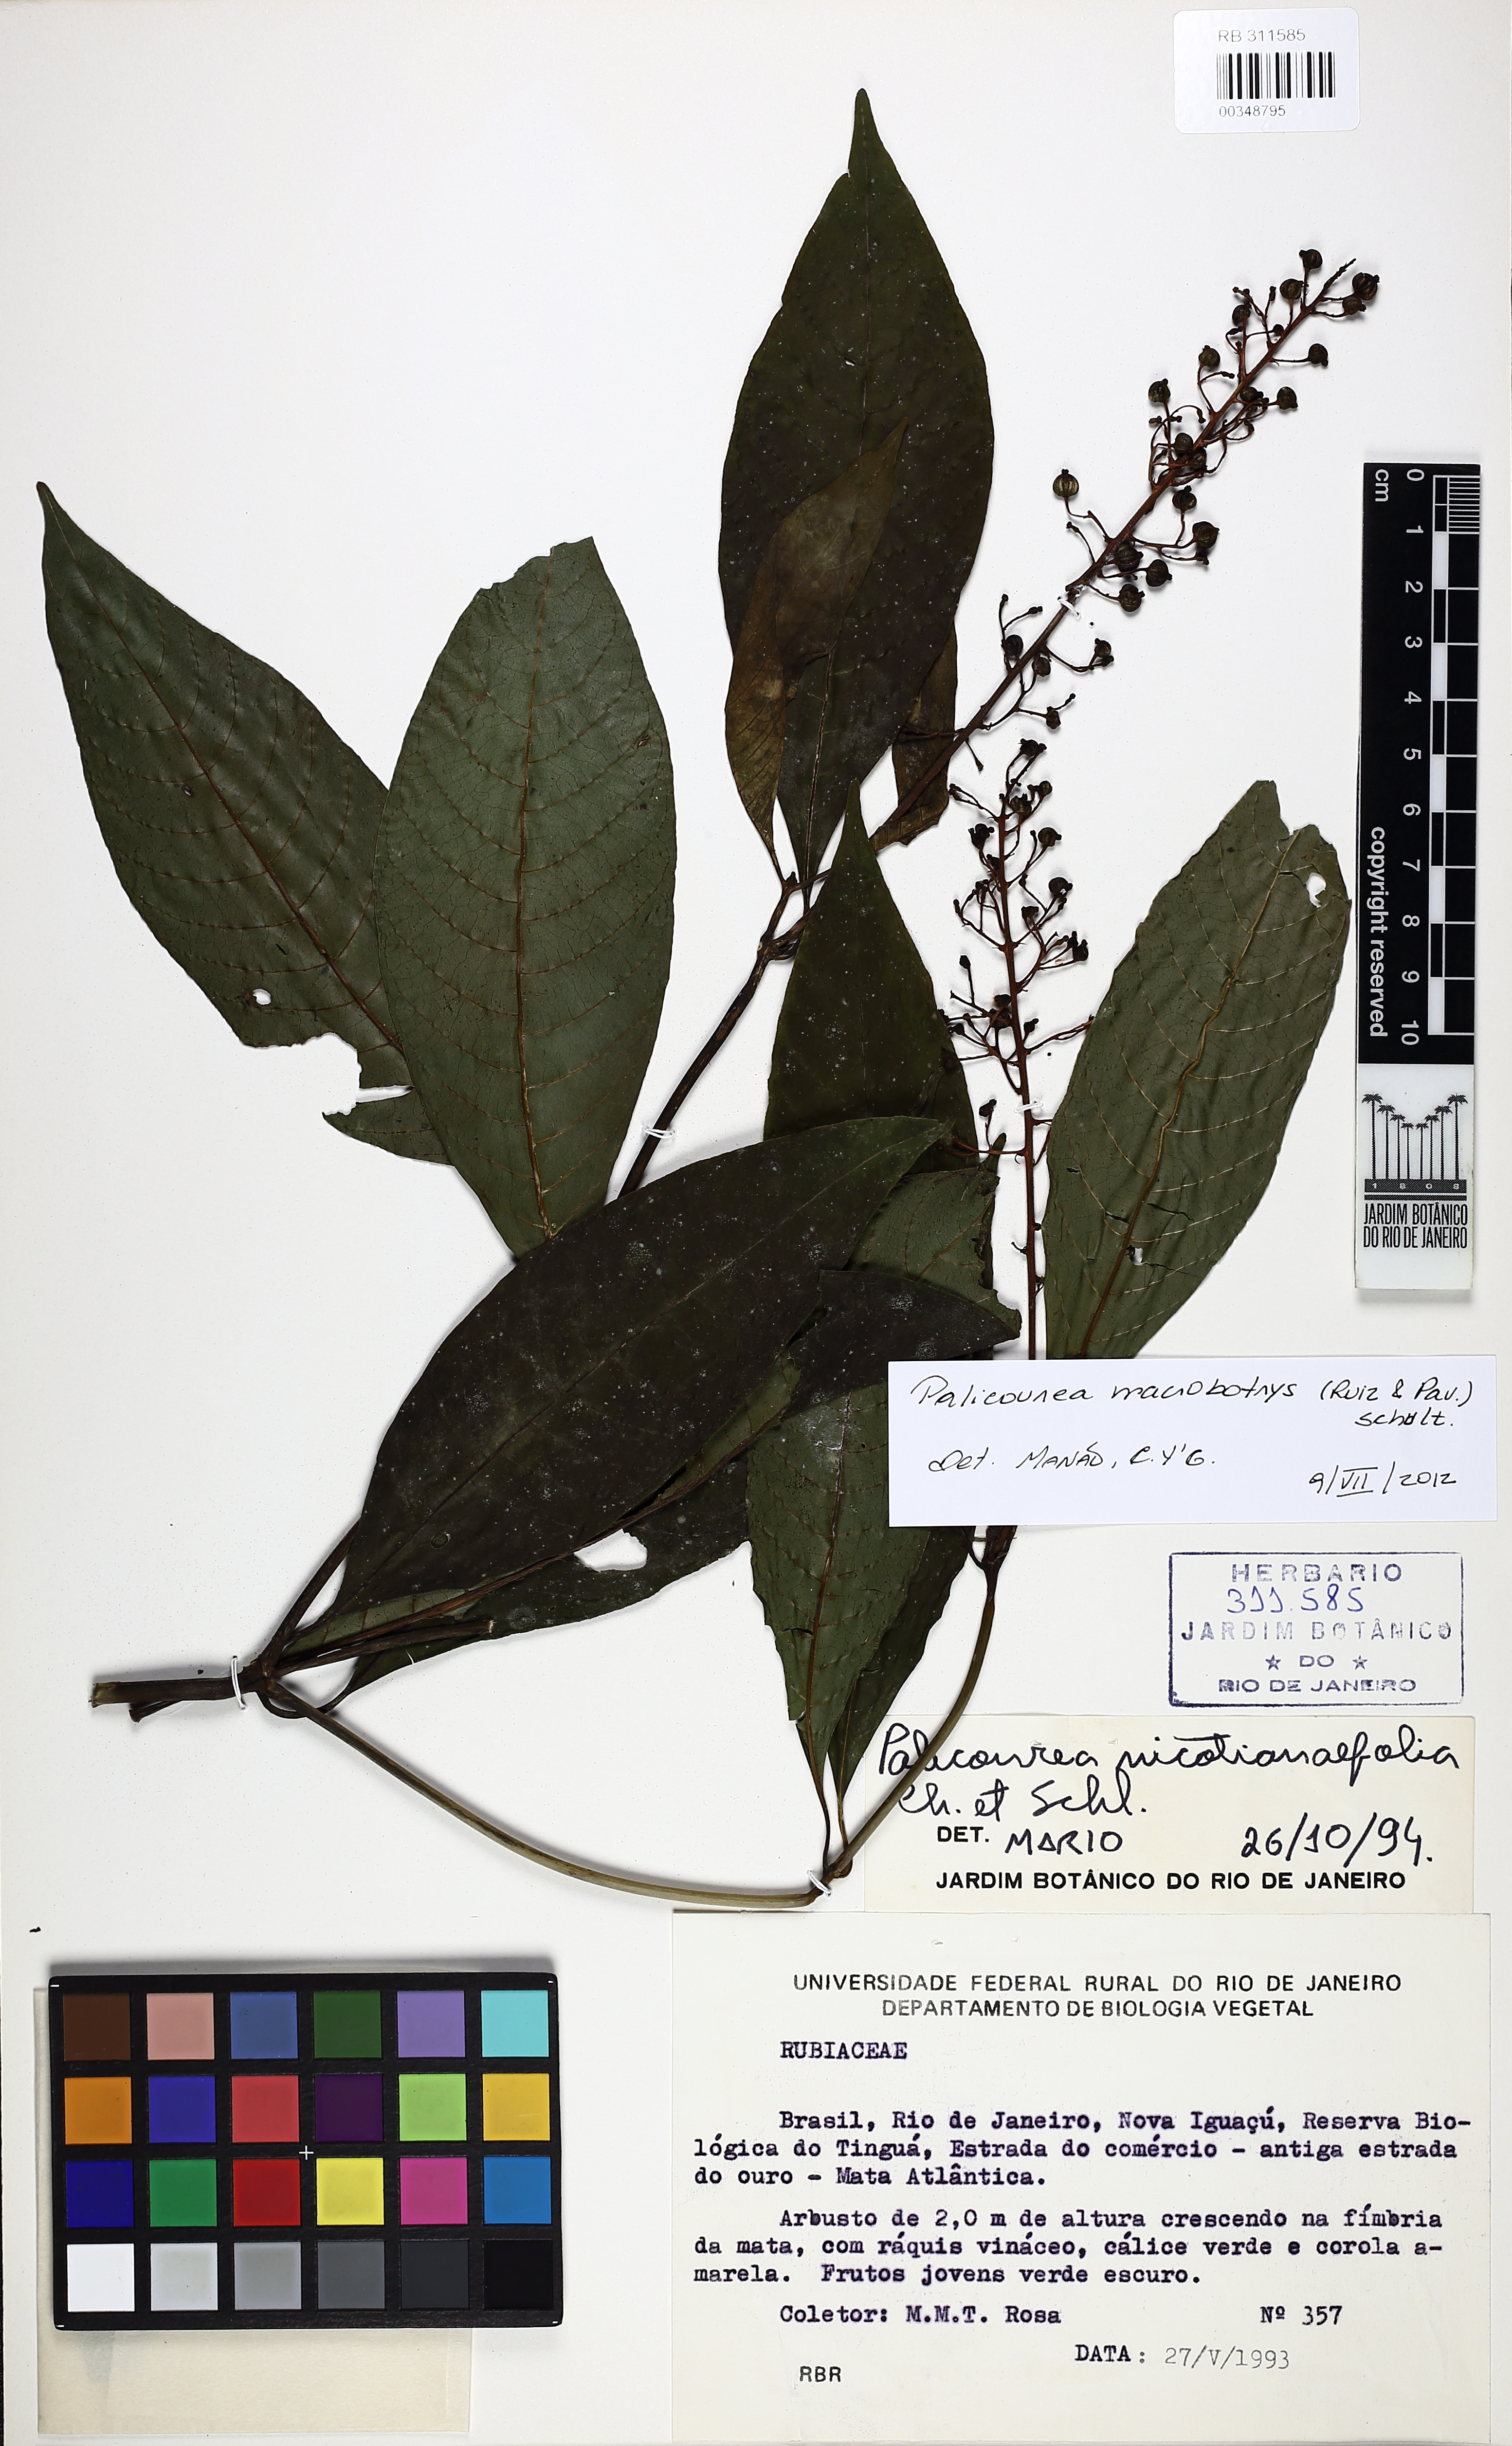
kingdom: Plantae
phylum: Tracheophyta
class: Magnoliopsida
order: Gentianales
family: Rubiaceae
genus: Palicourea
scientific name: Palicourea macrobotrys
